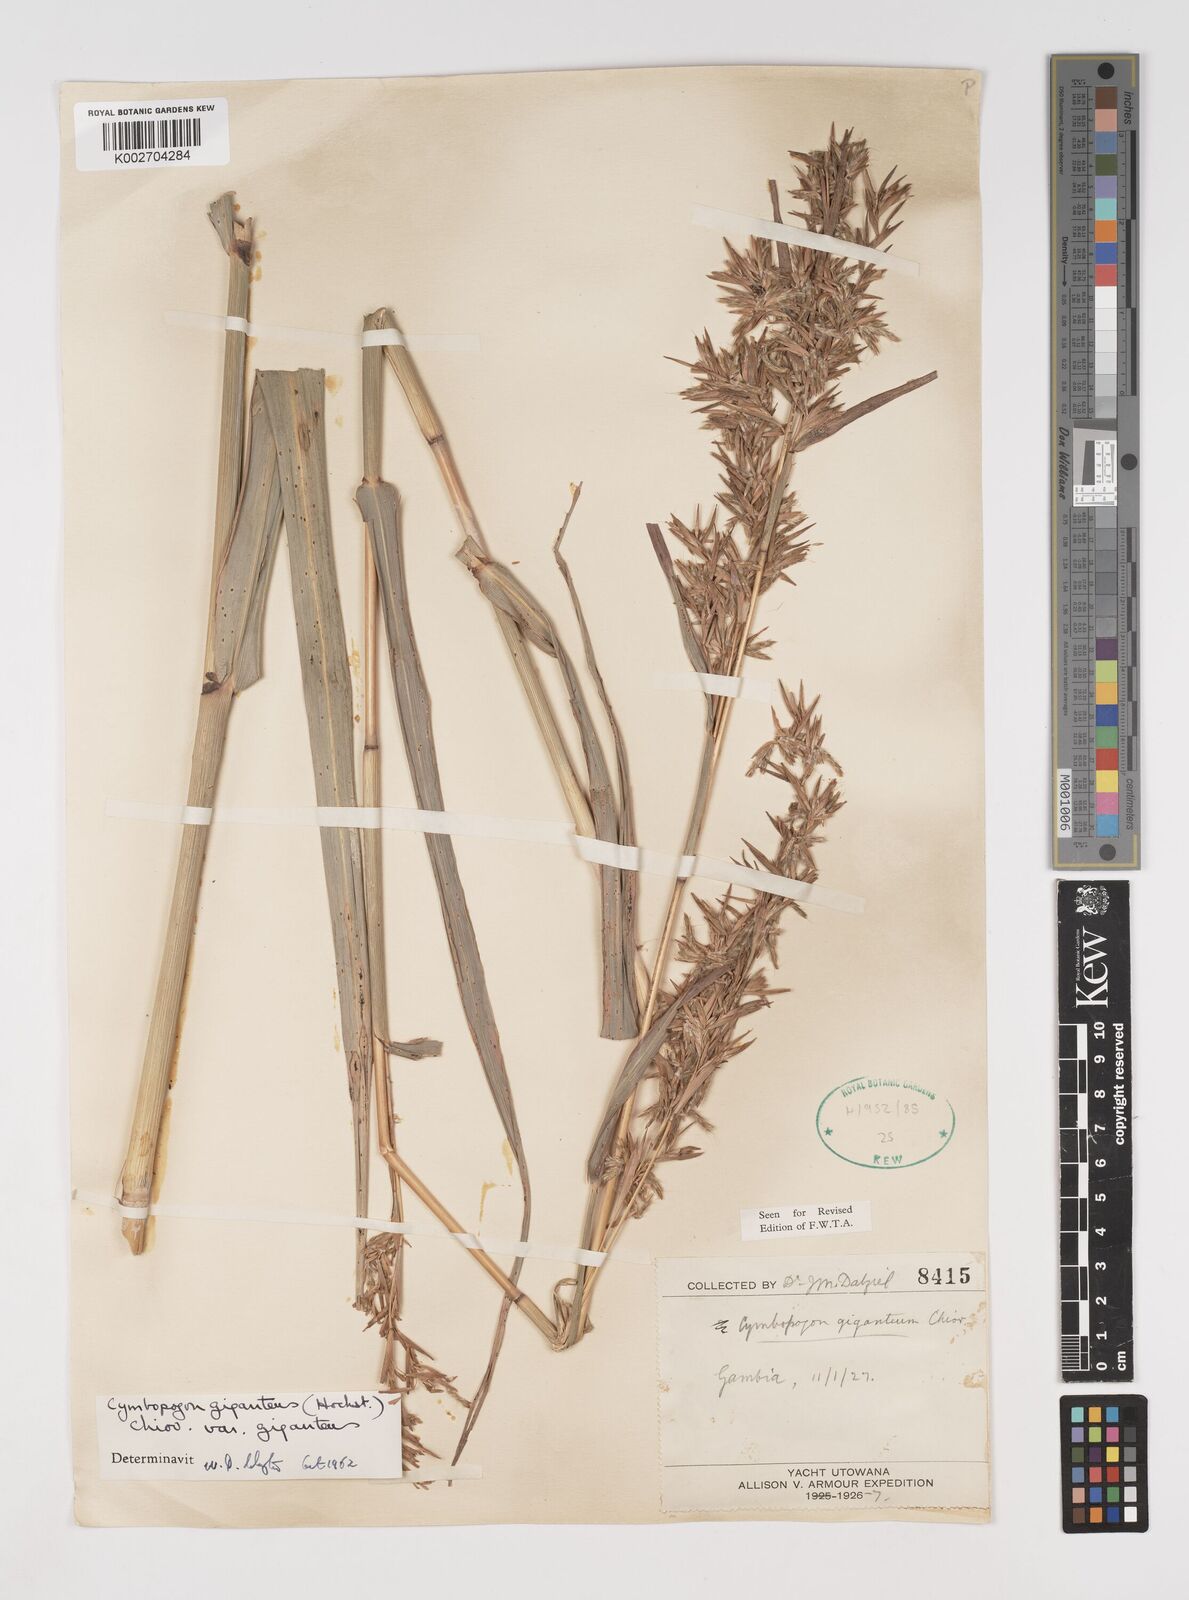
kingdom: Plantae
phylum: Tracheophyta
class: Liliopsida
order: Poales
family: Poaceae
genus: Cymbopogon
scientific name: Cymbopogon giganteus
